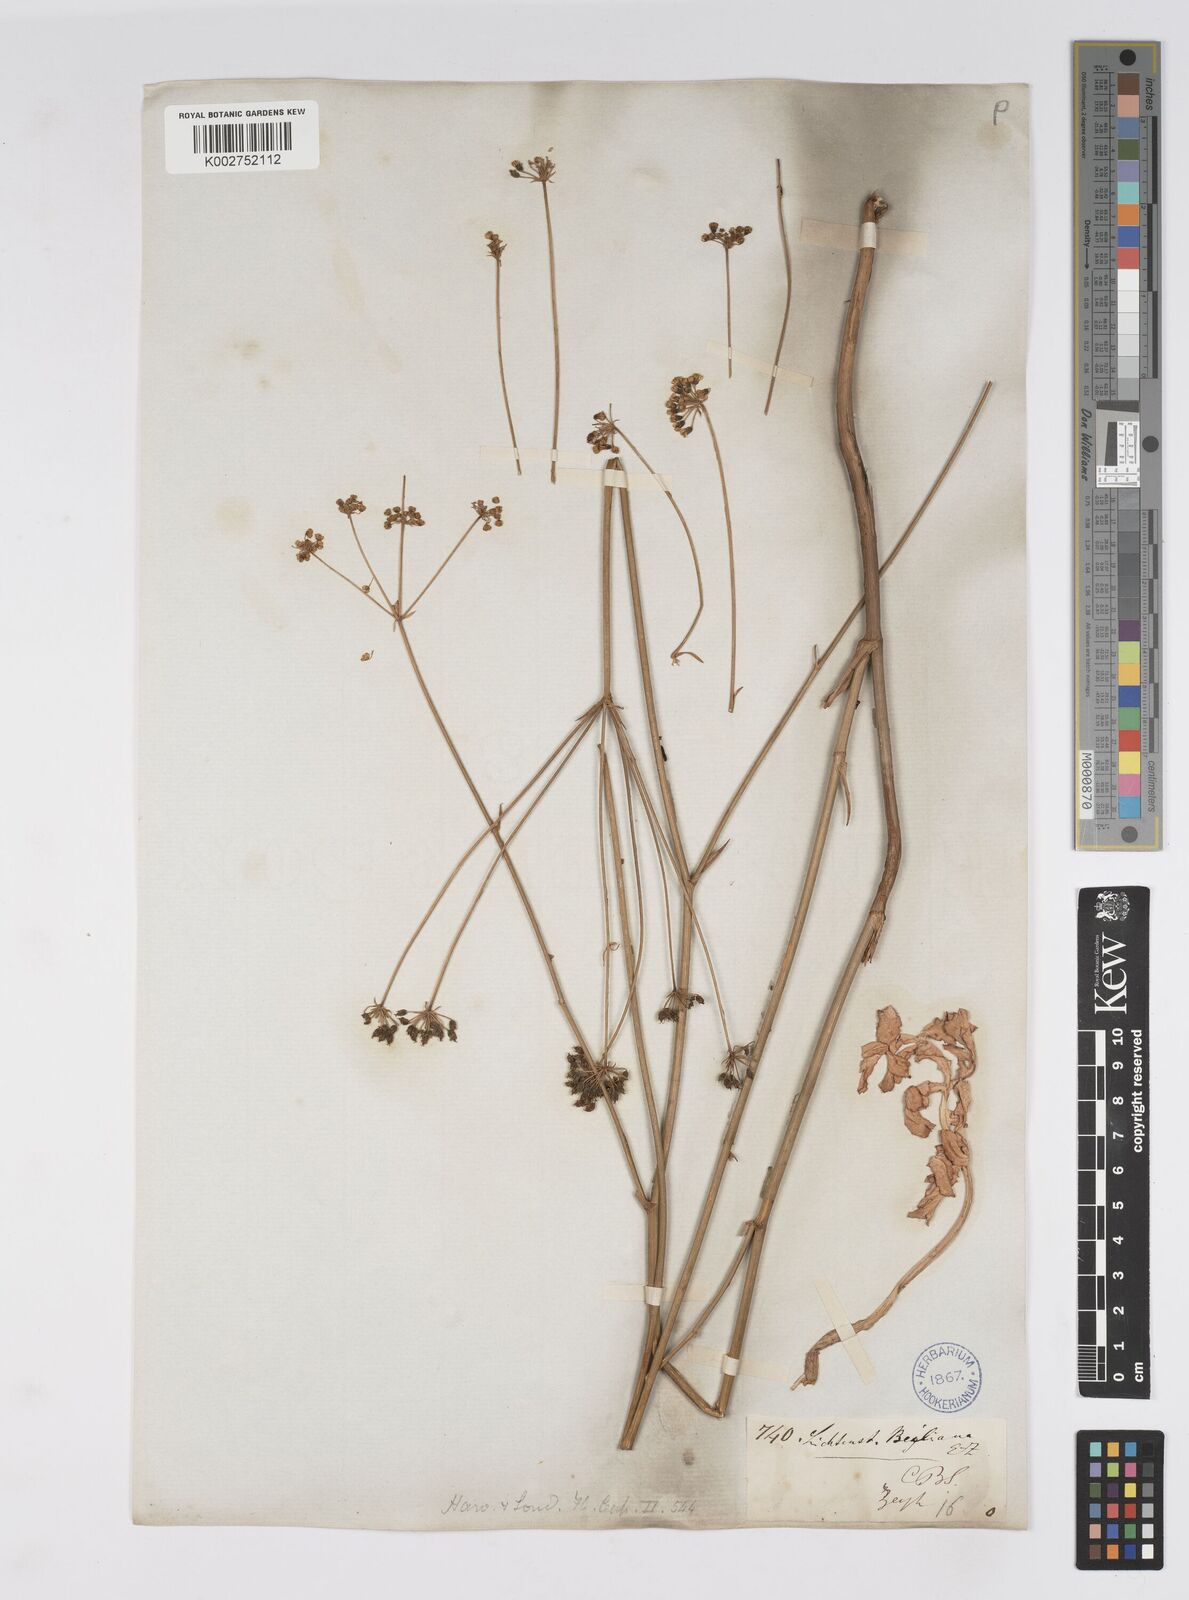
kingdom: Plantae
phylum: Tracheophyta
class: Magnoliopsida
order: Apiales
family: Apiaceae
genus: Lichtensteinia
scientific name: Lichtensteinia obscura
